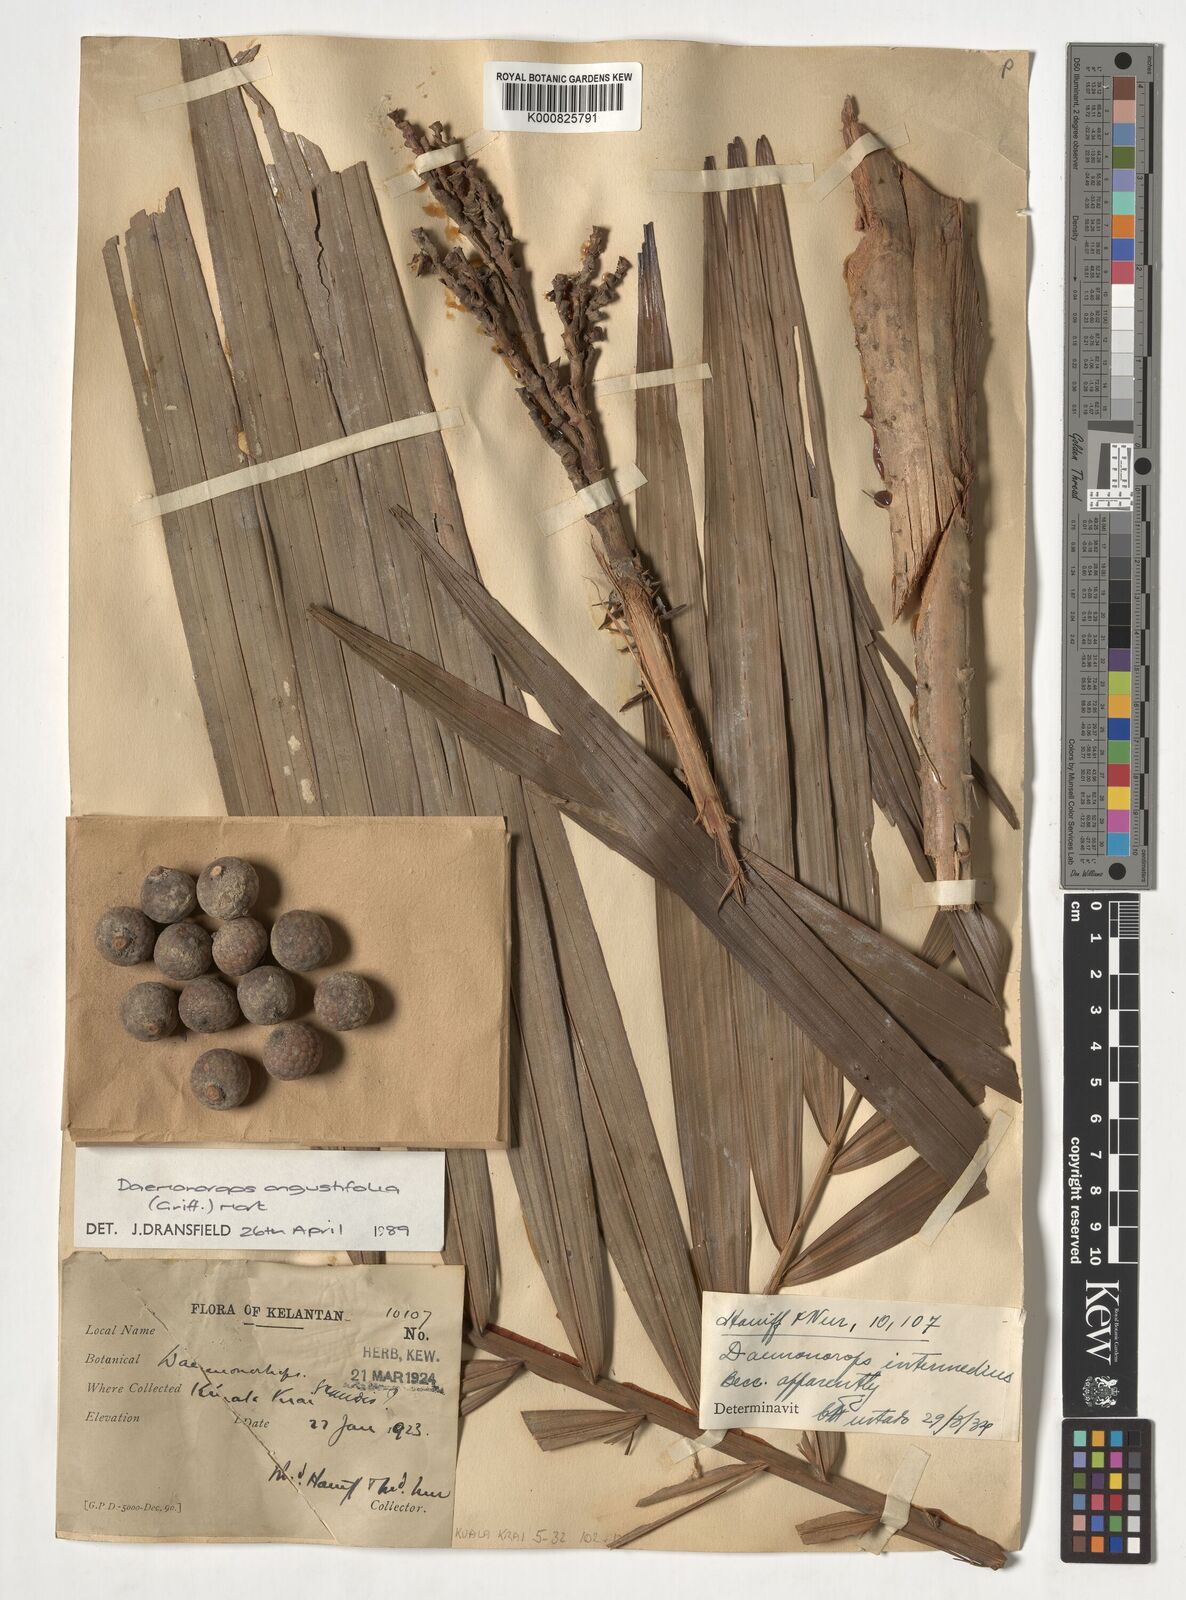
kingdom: Plantae
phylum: Tracheophyta
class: Liliopsida
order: Arecales
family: Arecaceae
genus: Calamus
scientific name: Calamus melanochaetes
